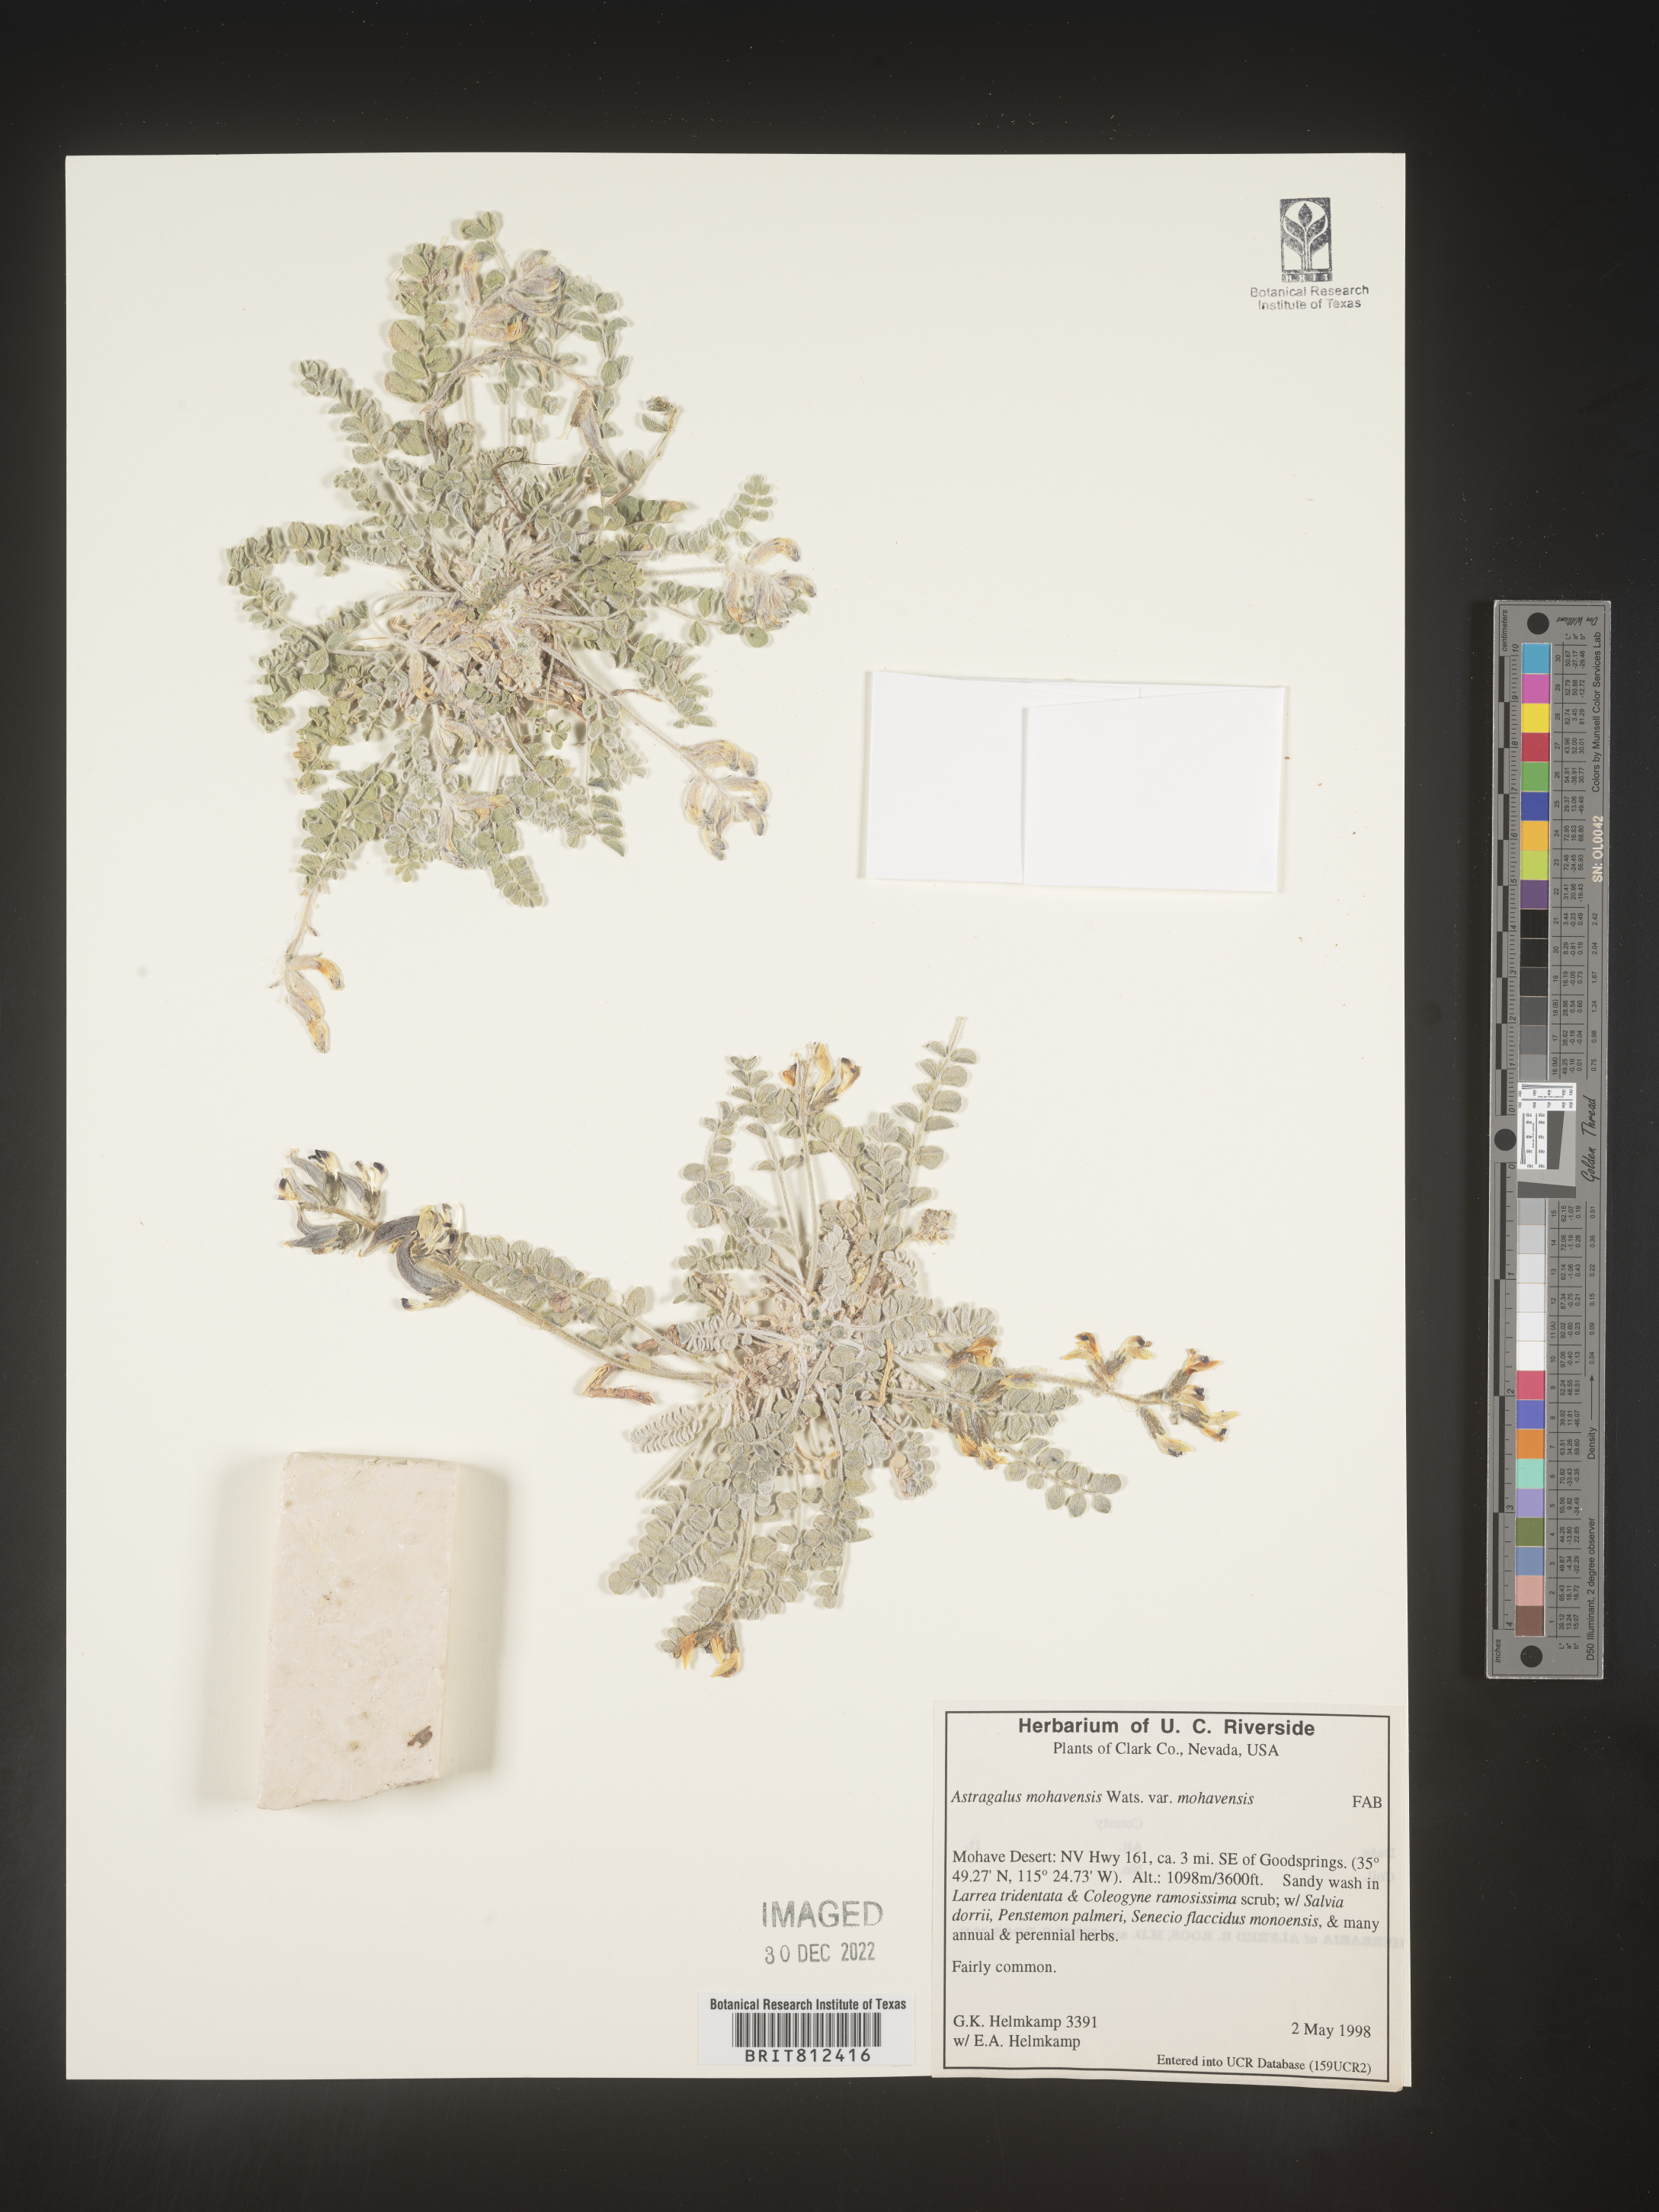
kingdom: Plantae
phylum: Tracheophyta
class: Magnoliopsida
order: Fabales
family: Fabaceae
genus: Astragalus
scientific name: Astragalus
